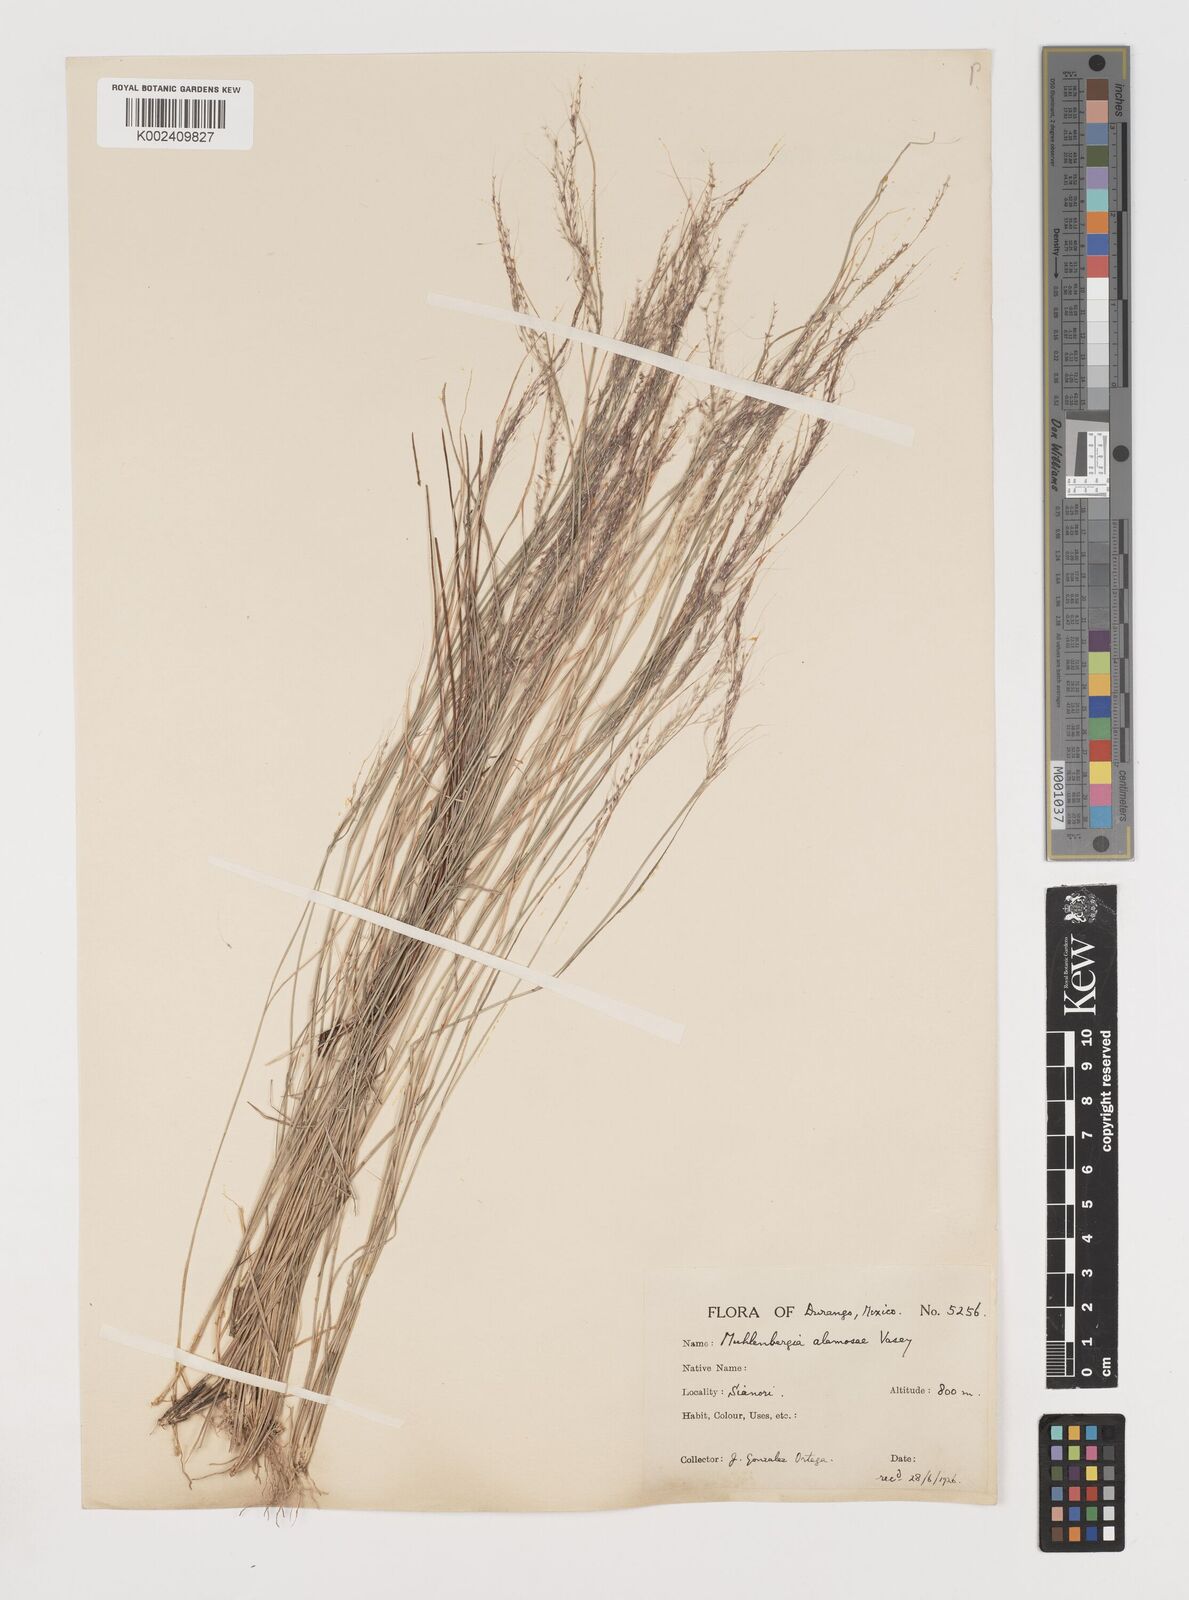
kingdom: Plantae
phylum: Tracheophyta
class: Liliopsida
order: Poales
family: Poaceae
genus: Muhlenbergia
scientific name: Muhlenbergia alamosae
